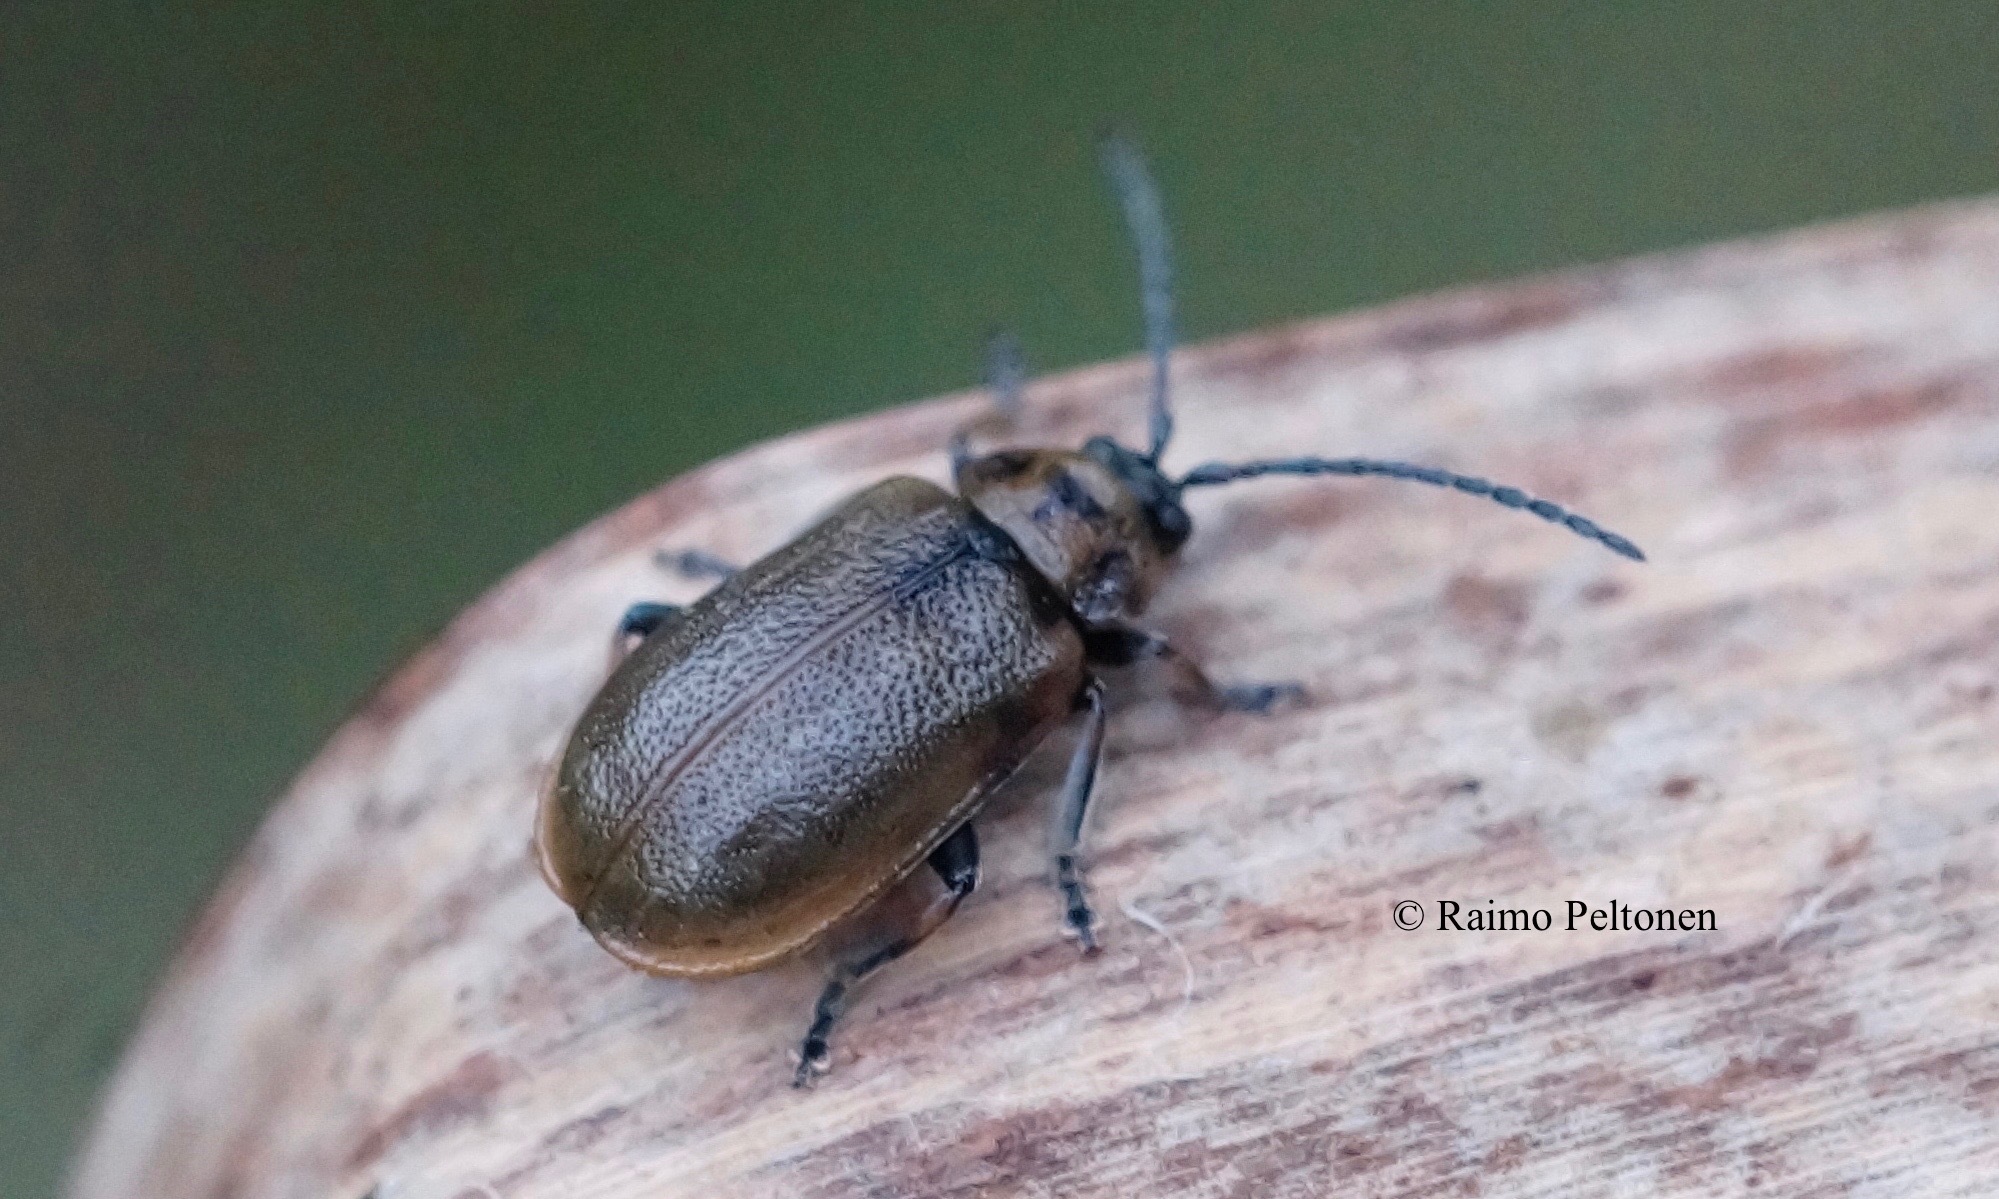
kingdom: Animalia
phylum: Arthropoda
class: Insecta
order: Coleoptera
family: Chrysomelidae
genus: Galerucella
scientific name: Galerucella
